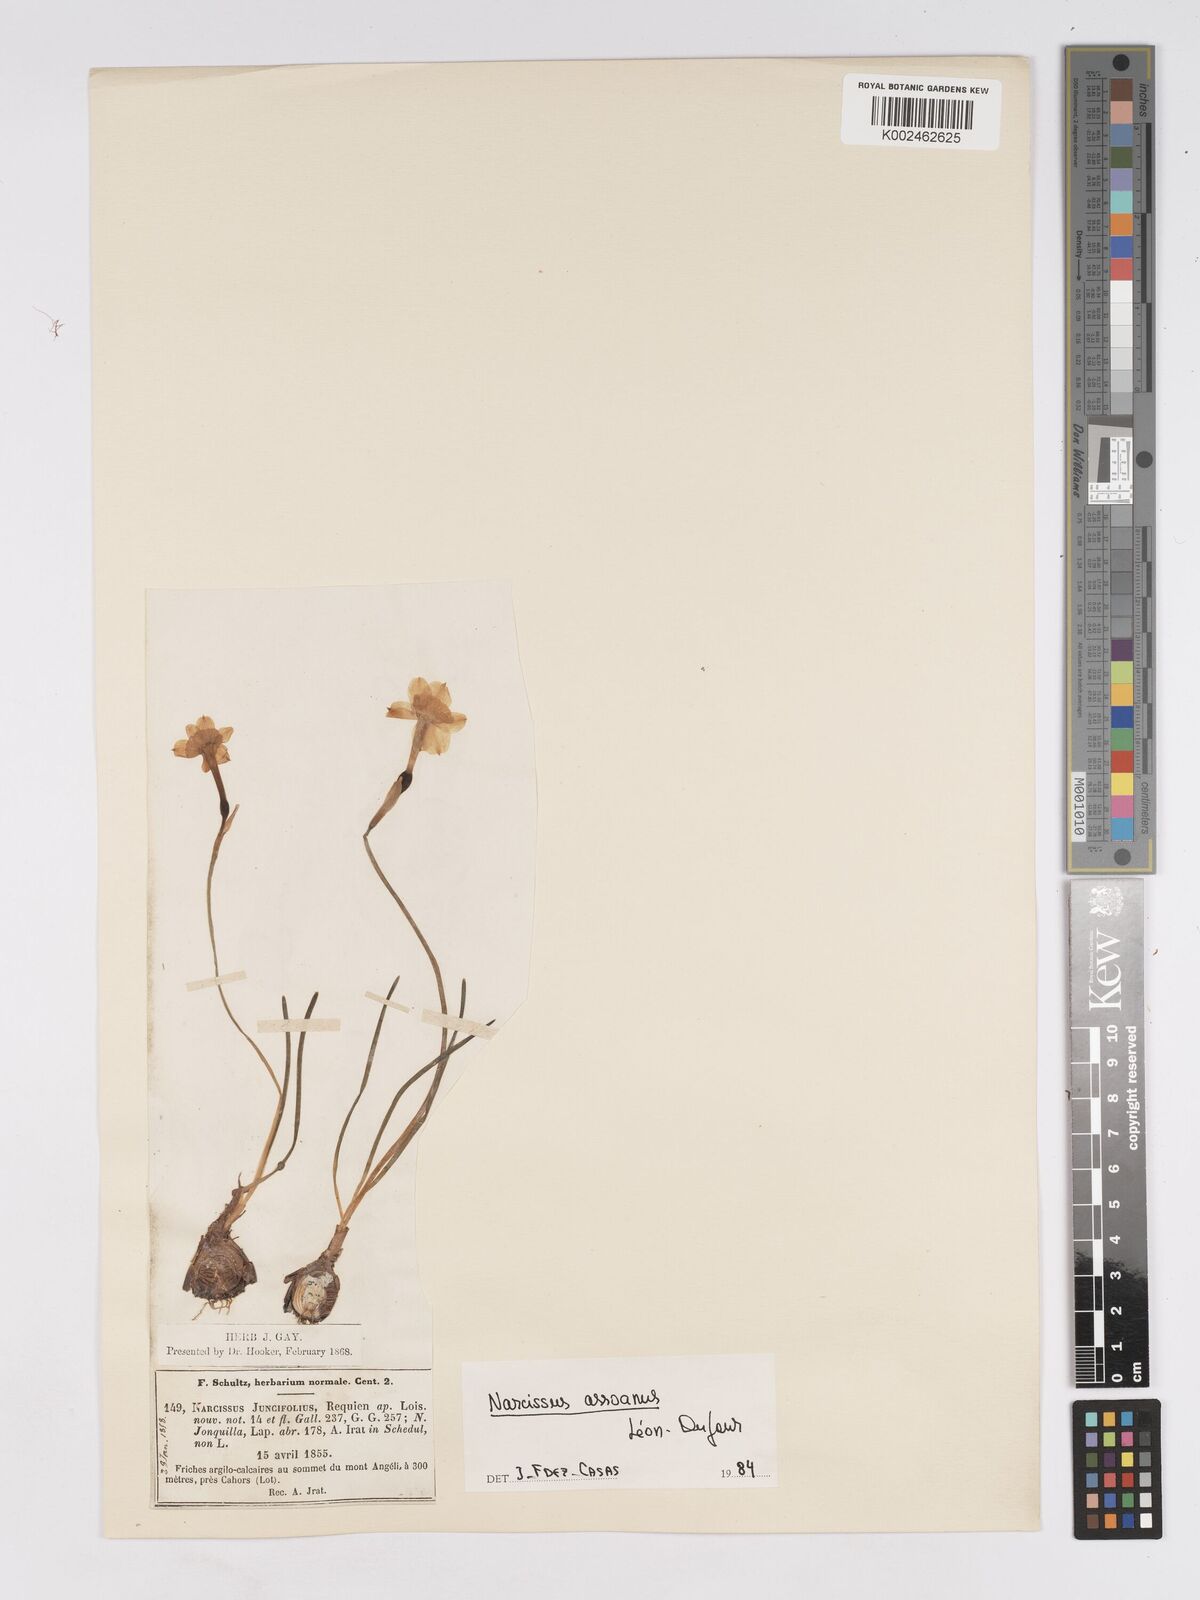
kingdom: Plantae
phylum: Tracheophyta
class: Liliopsida
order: Asparagales
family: Amaryllidaceae
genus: Narcissus
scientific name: Narcissus assoanus
